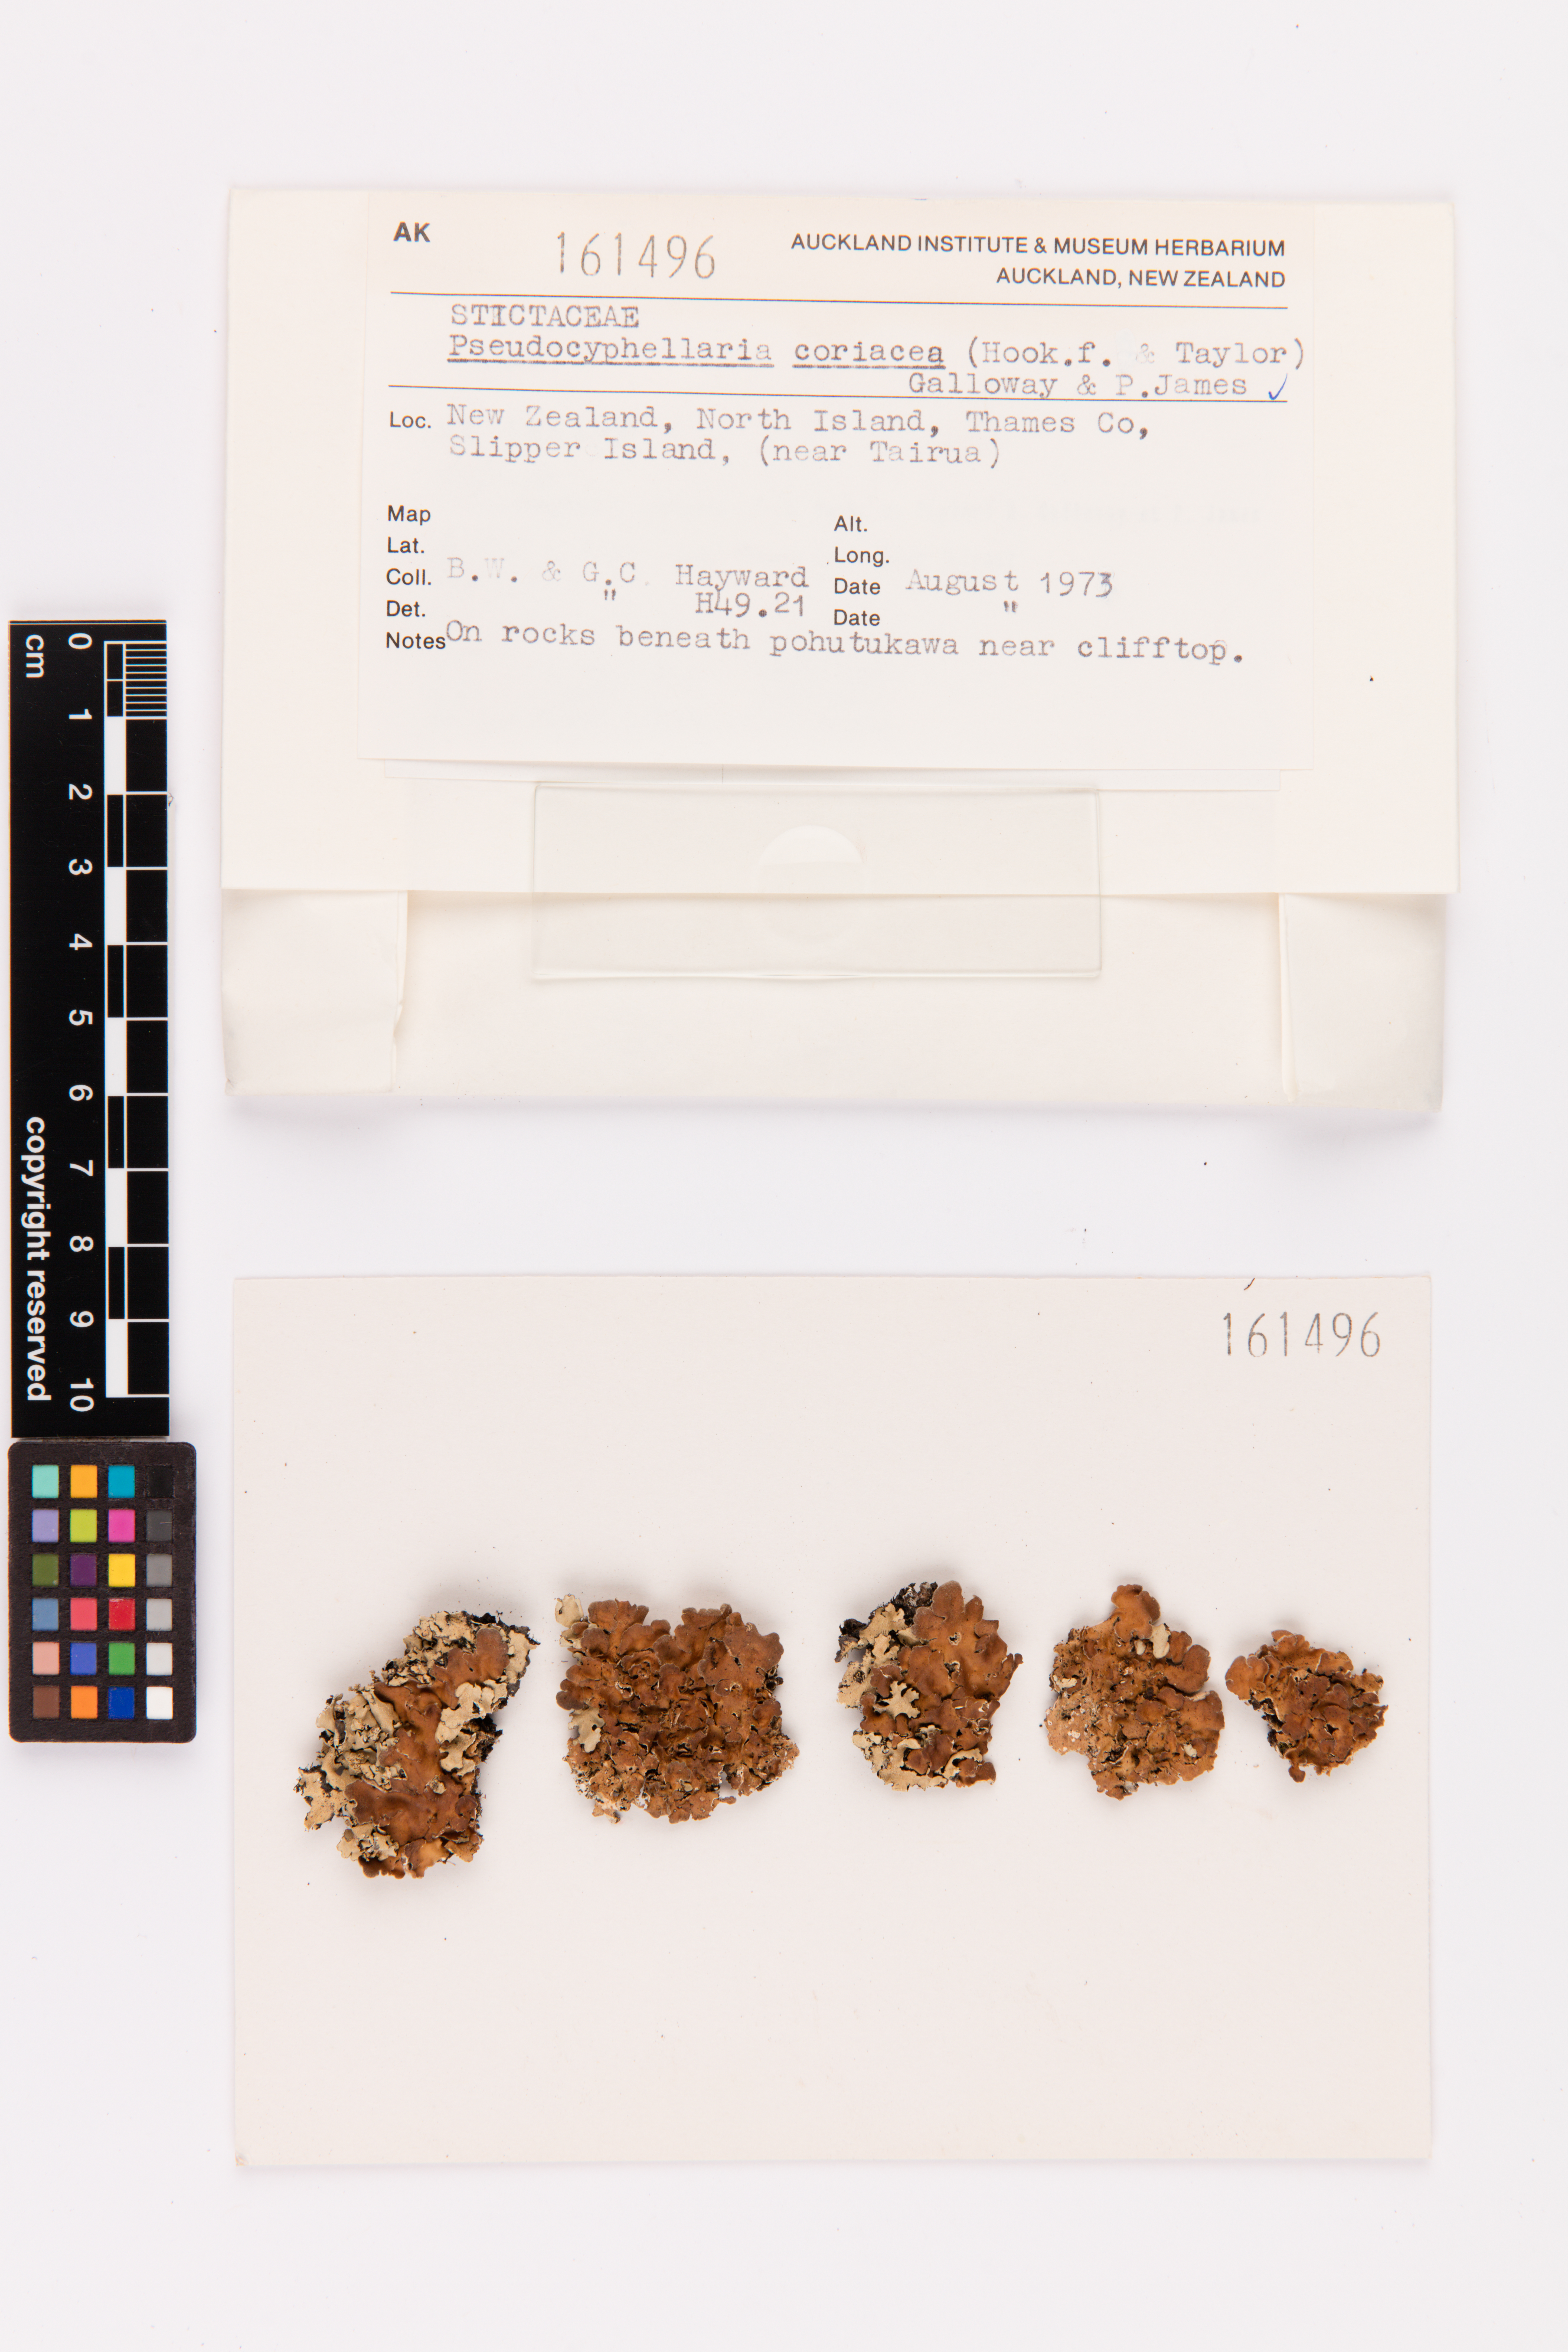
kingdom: Fungi
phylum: Ascomycota
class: Lecanoromycetes
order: Peltigerales
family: Lobariaceae
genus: Pseudocyphellaria
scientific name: Pseudocyphellaria coriacea
